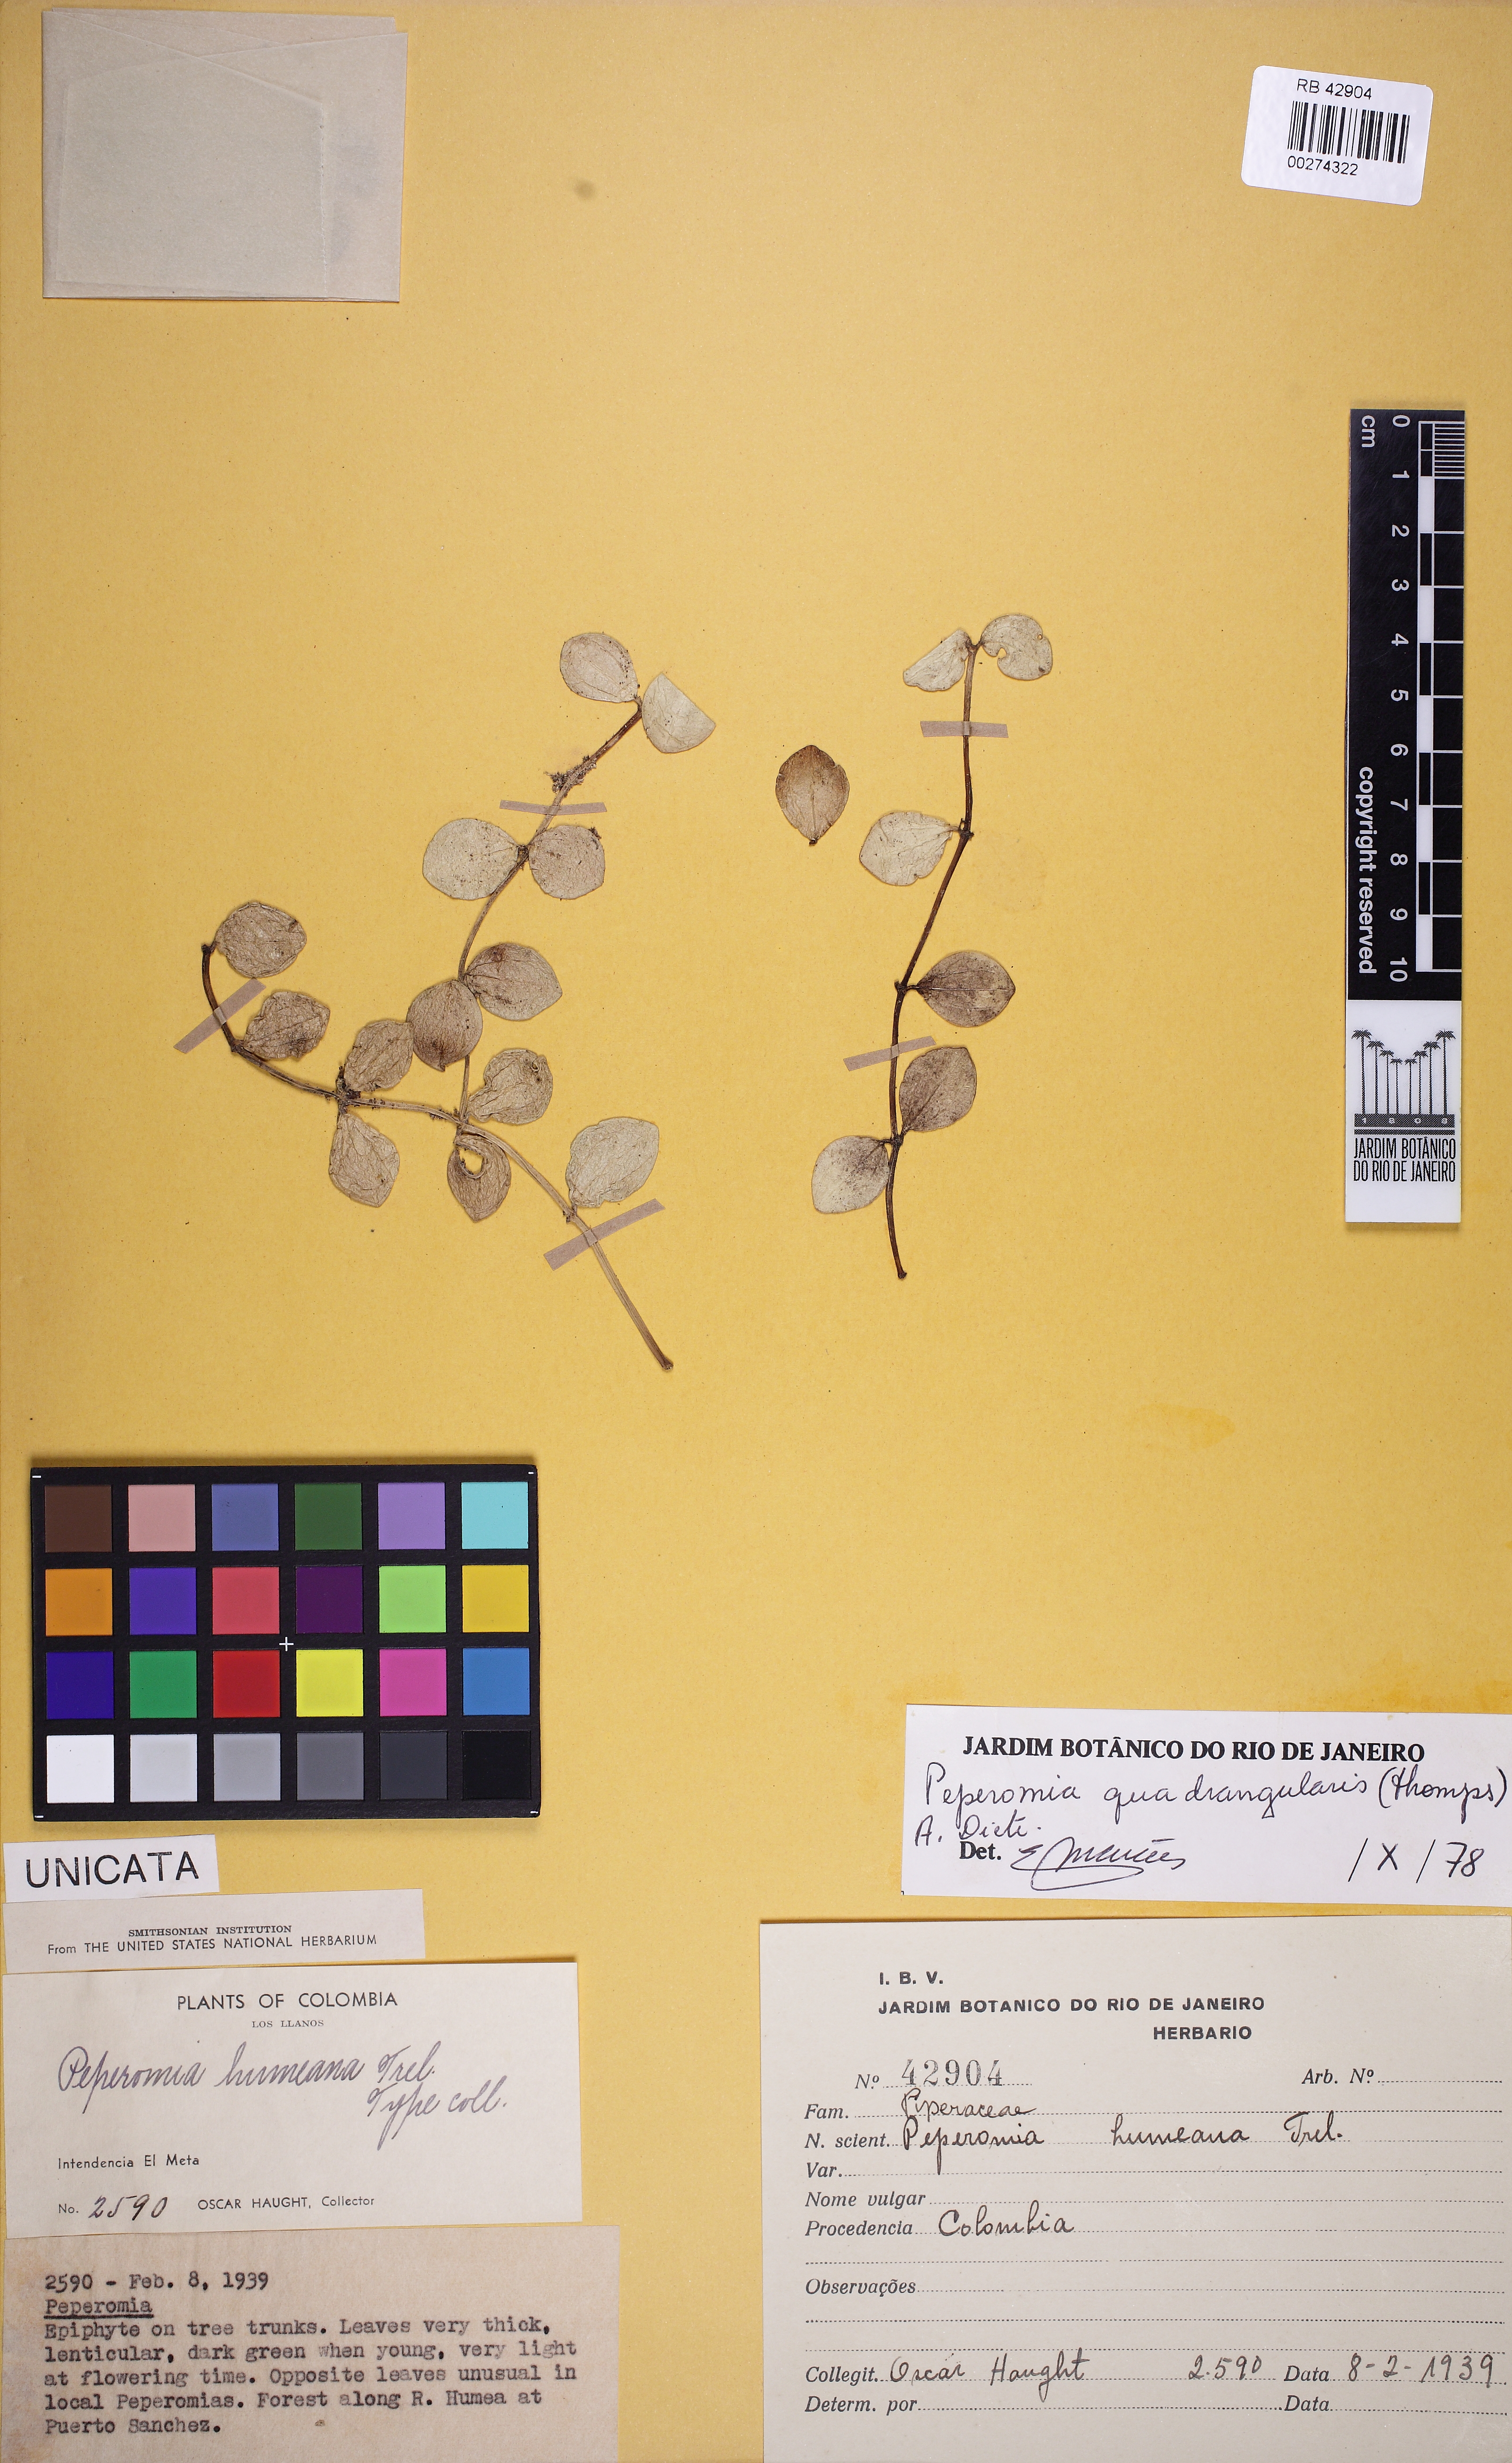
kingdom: Plantae
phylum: Tracheophyta
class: Magnoliopsida
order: Piperales
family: Piperaceae
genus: Peperomia
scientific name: Peperomia quadrangularis
